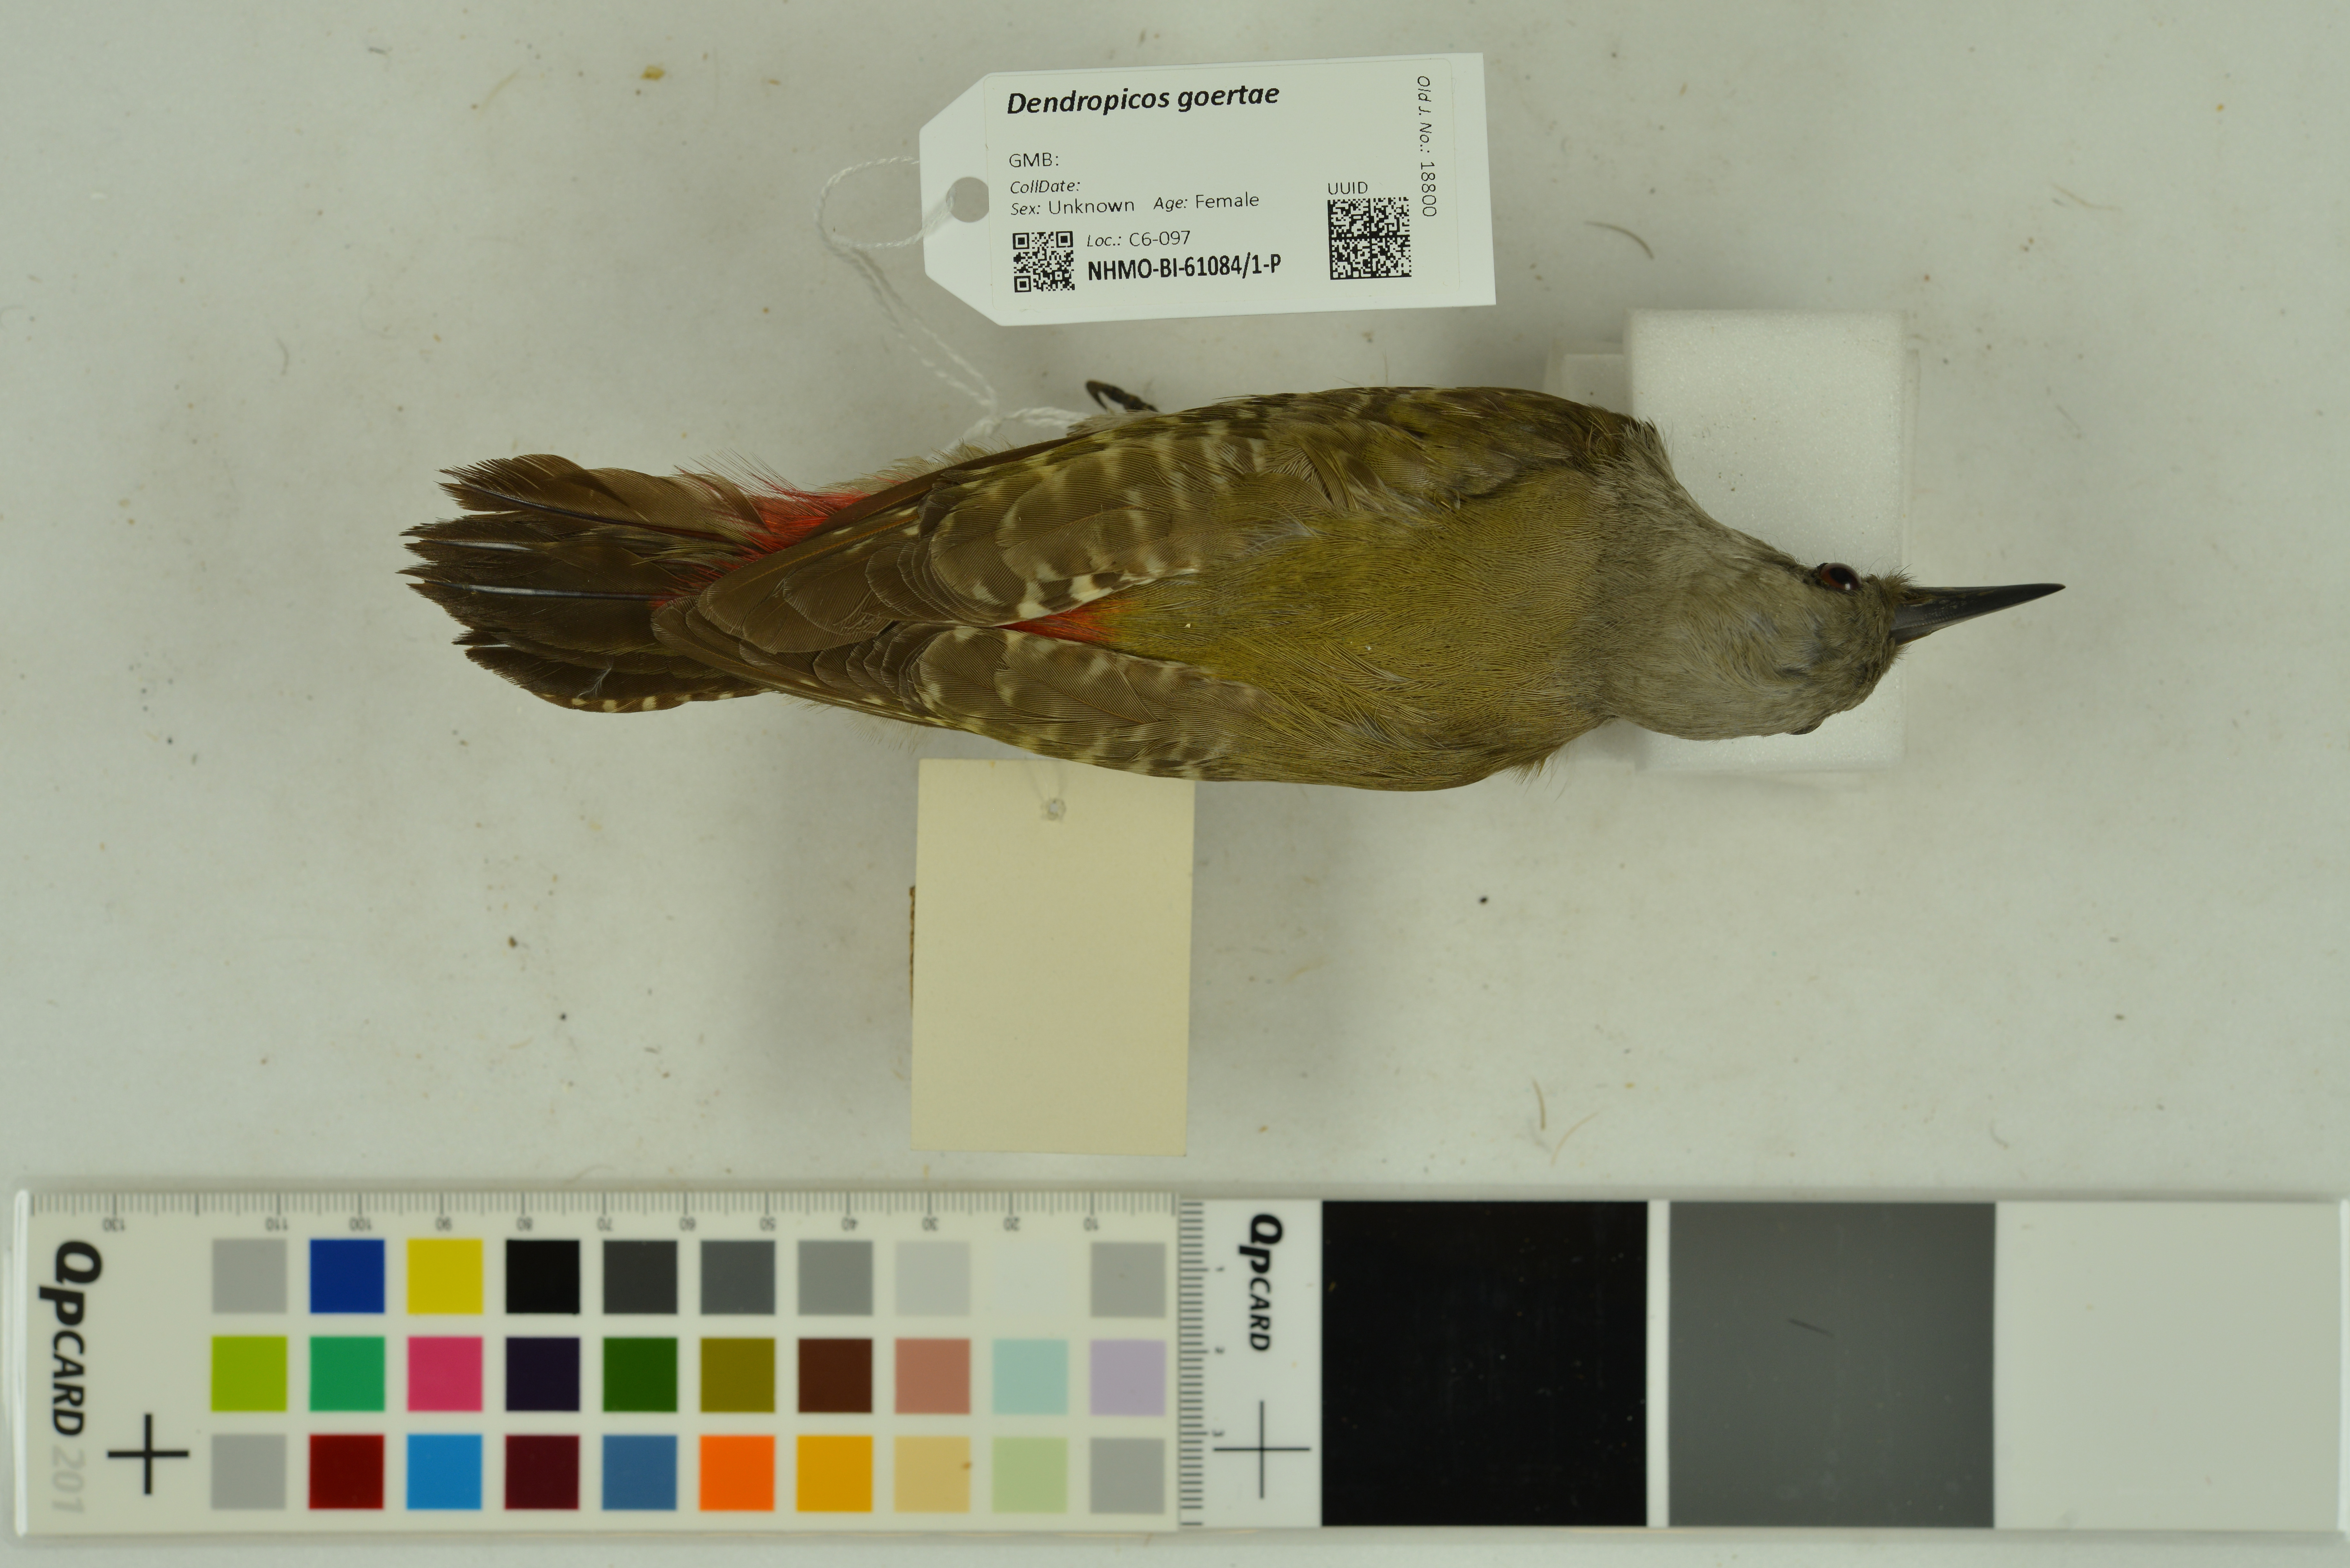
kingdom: Animalia
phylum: Chordata
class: Aves
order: Piciformes
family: Picidae
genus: Dendropicos
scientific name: Dendropicos goertae
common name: African grey woodpecker
